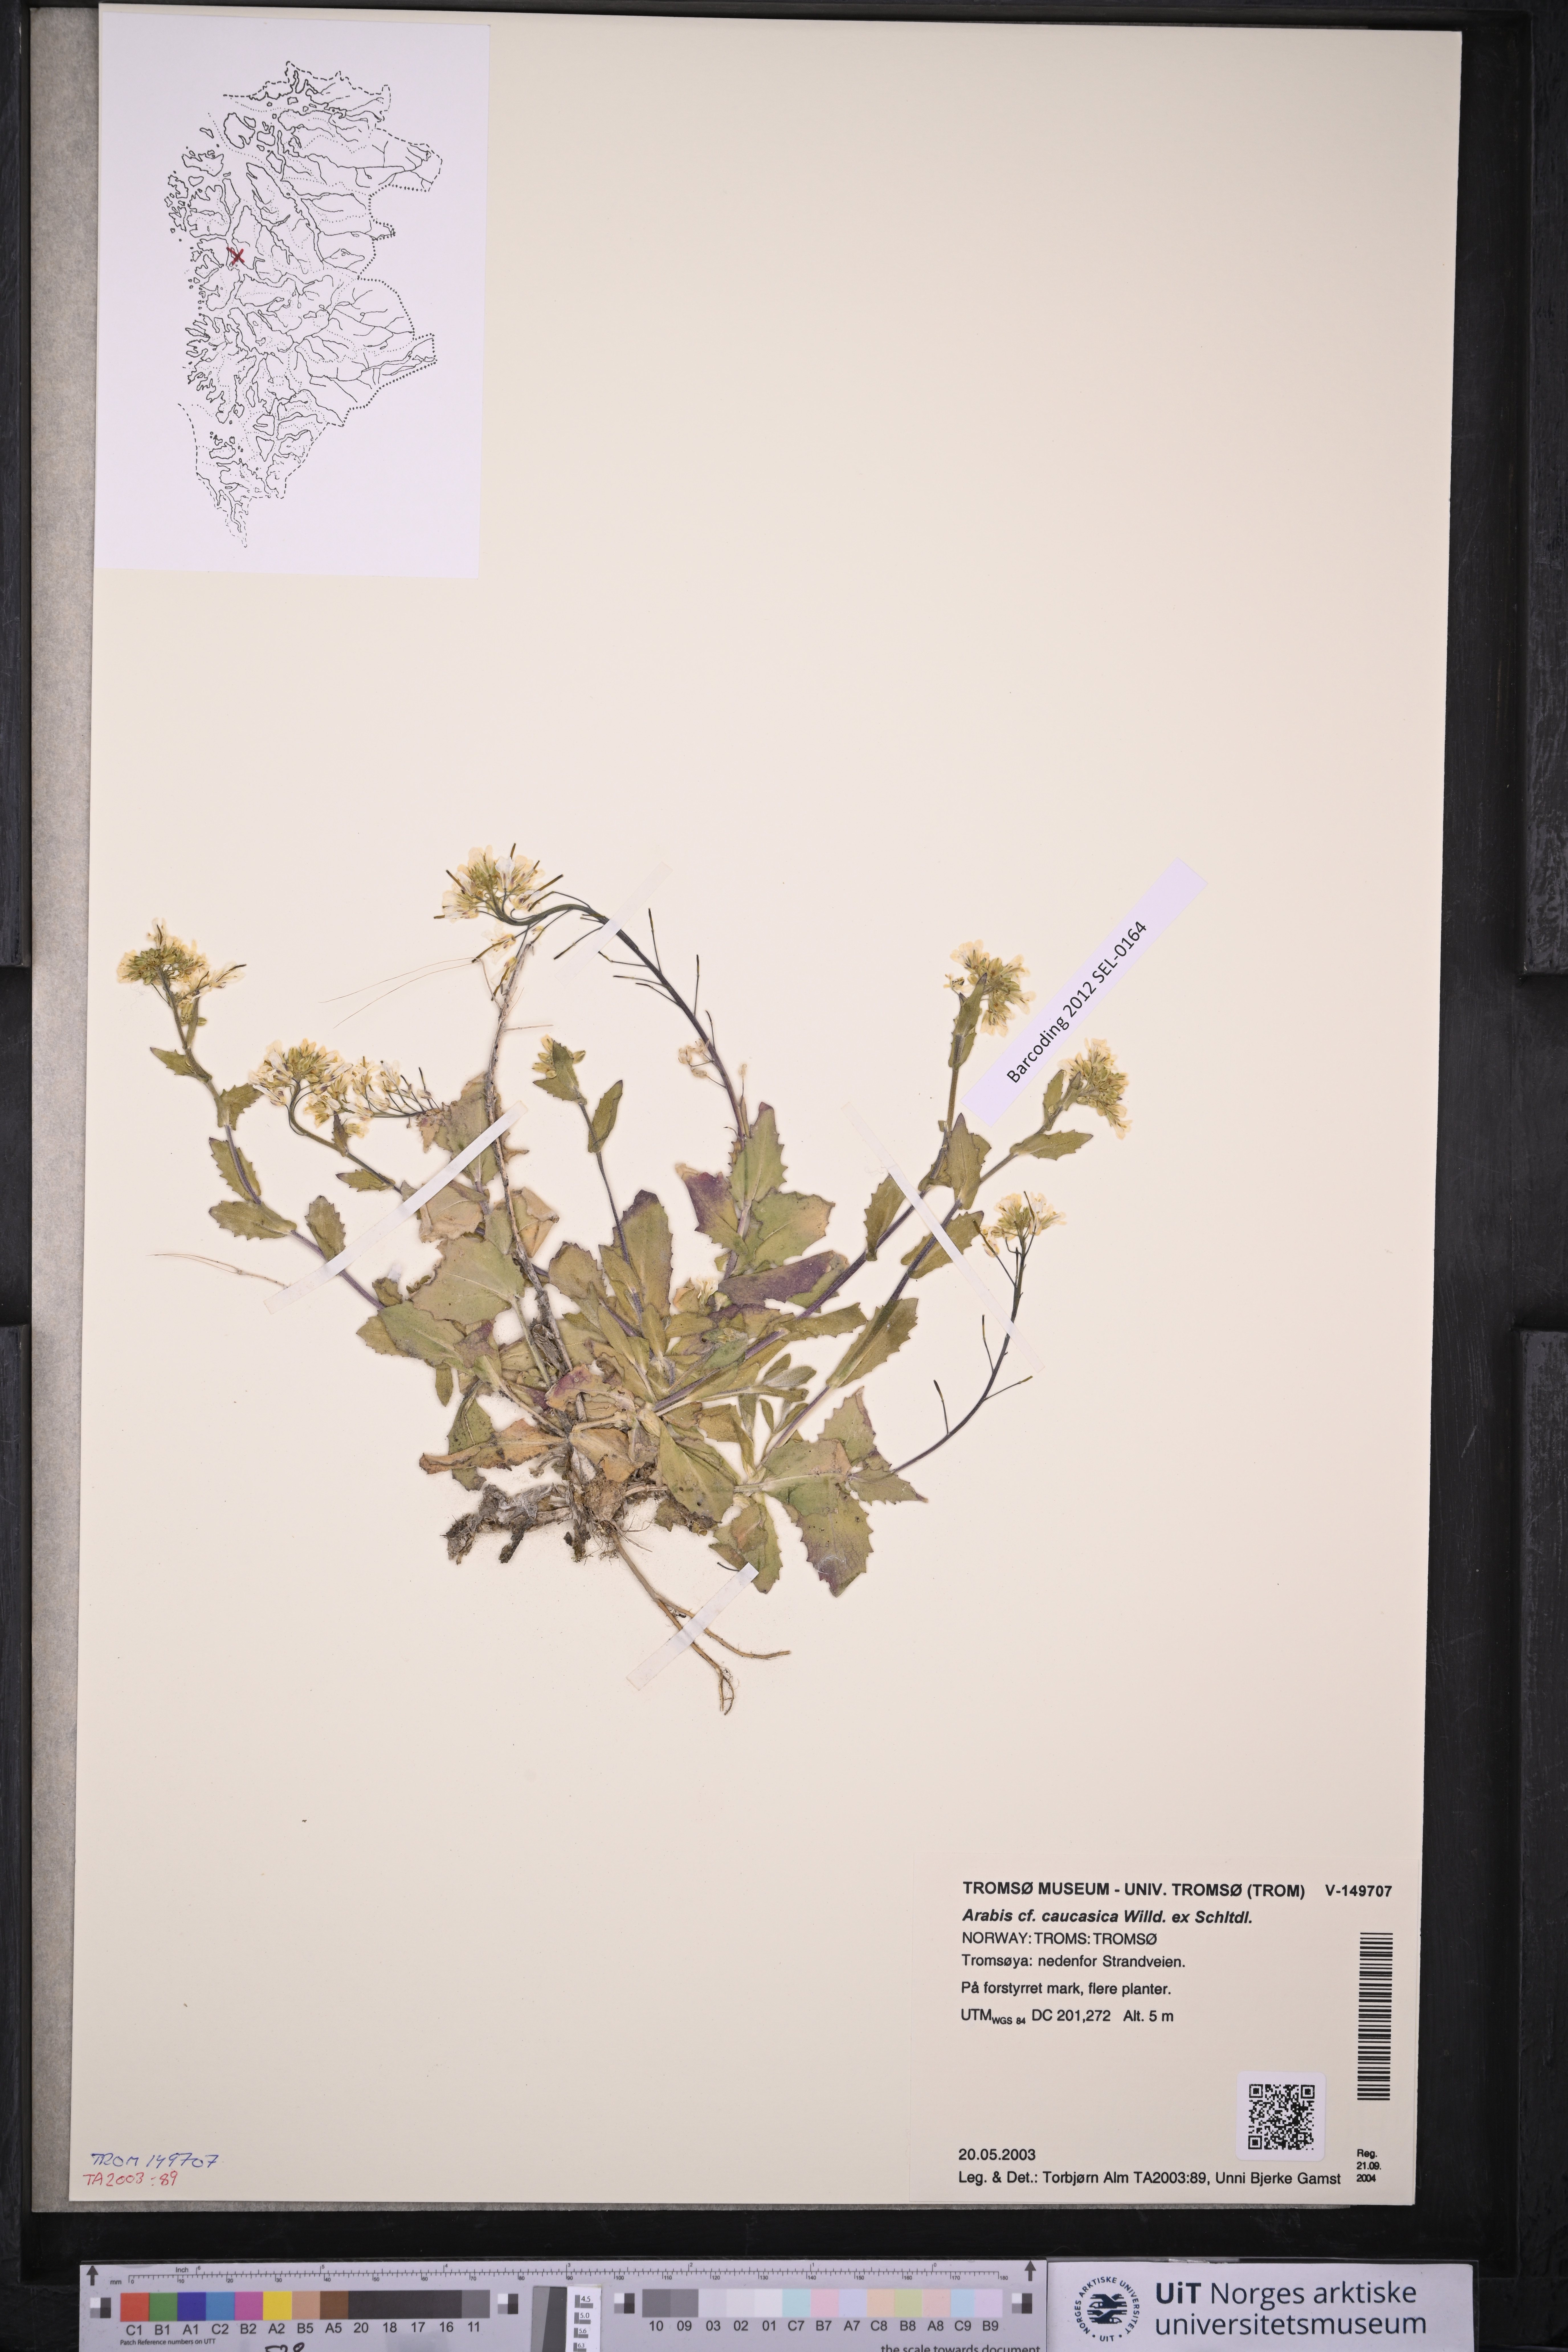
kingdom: Plantae
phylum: Tracheophyta
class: Magnoliopsida
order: Brassicales
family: Brassicaceae
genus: Arabis
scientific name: Arabis caucasica
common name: Gray rockcress
